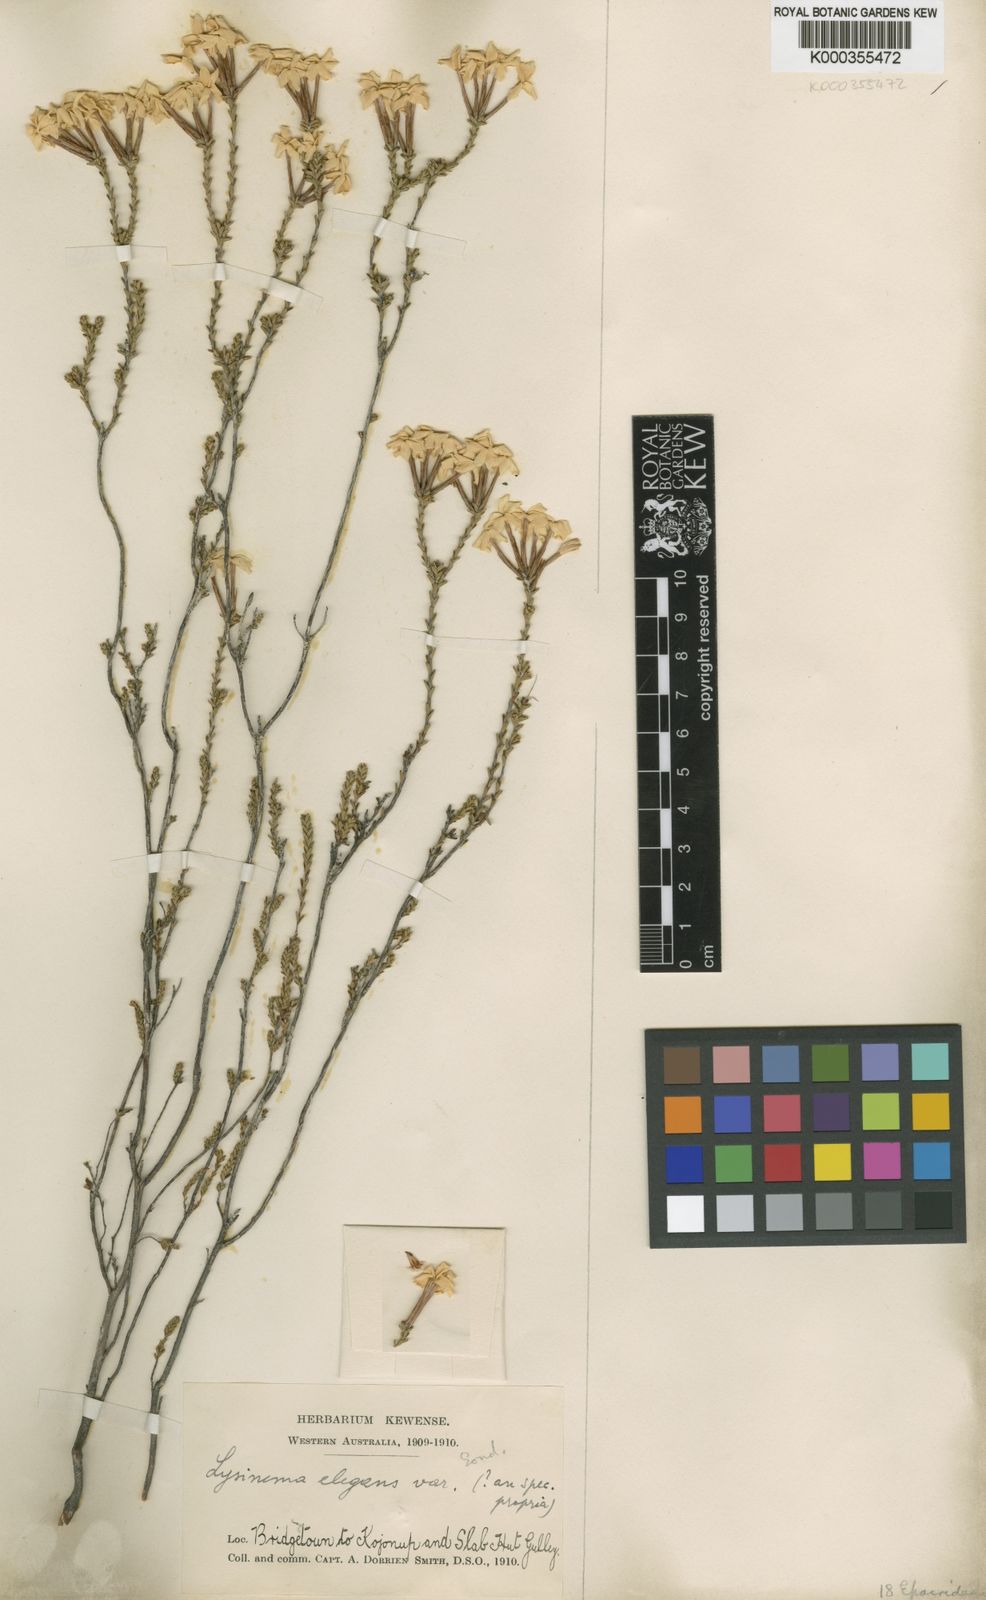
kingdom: Plantae
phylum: Tracheophyta
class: Magnoliopsida
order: Ericales
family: Ericaceae
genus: Lysinema
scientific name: Lysinema elegans
